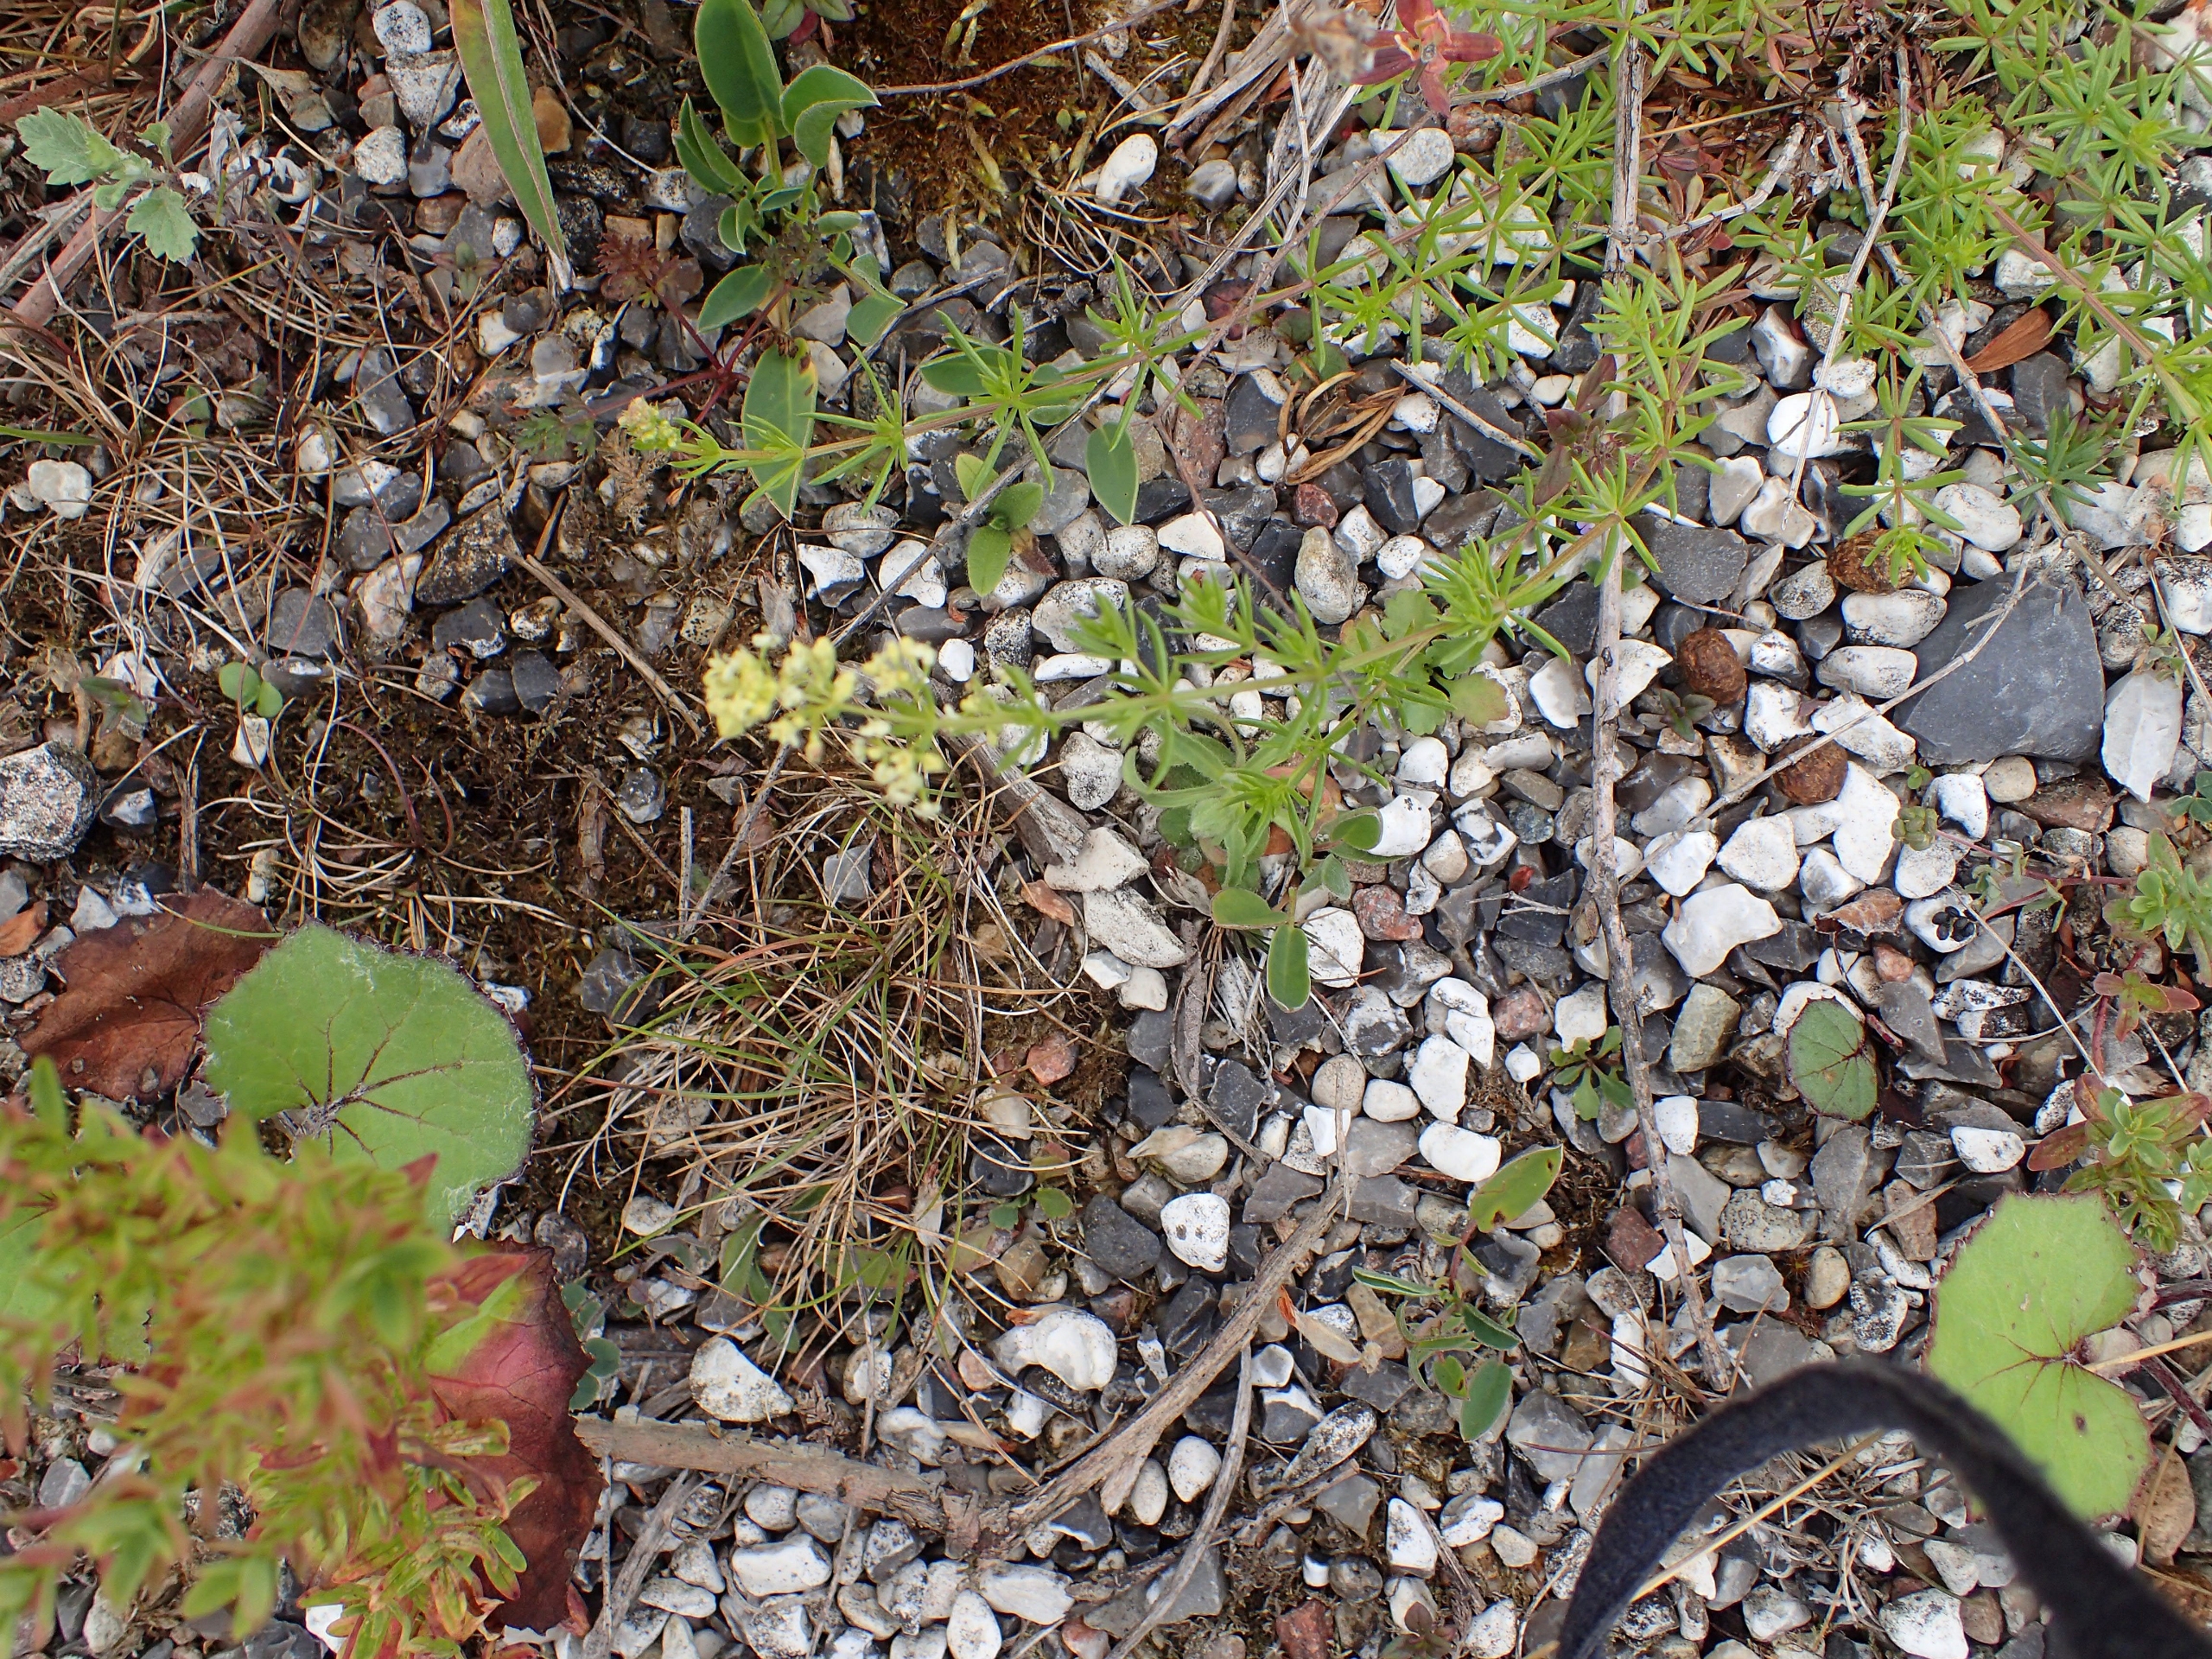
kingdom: Plantae
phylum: Tracheophyta
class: Magnoliopsida
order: Gentianales
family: Rubiaceae
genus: Galium
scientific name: Galium
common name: Hvidgul snerre
